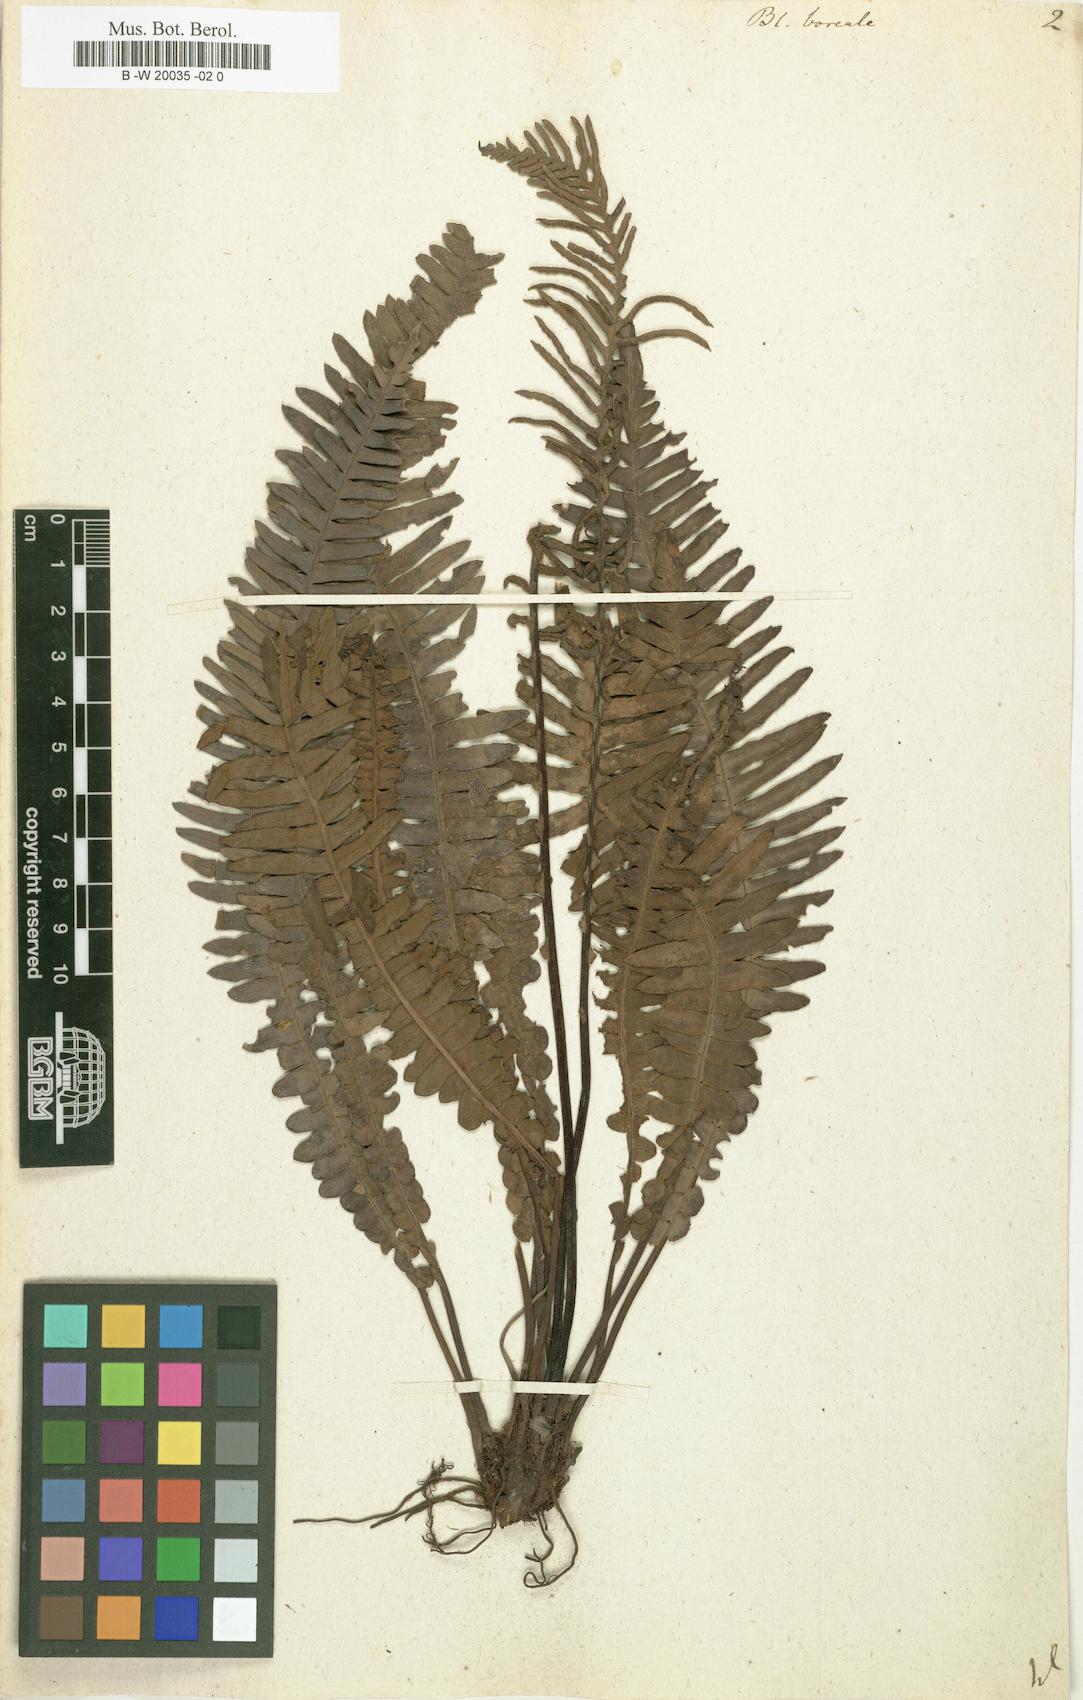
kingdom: Plantae
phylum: Tracheophyta
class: Polypodiopsida
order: Polypodiales
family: Blechnaceae
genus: Struthiopteris
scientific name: Struthiopteris spicant
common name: Deer fern
